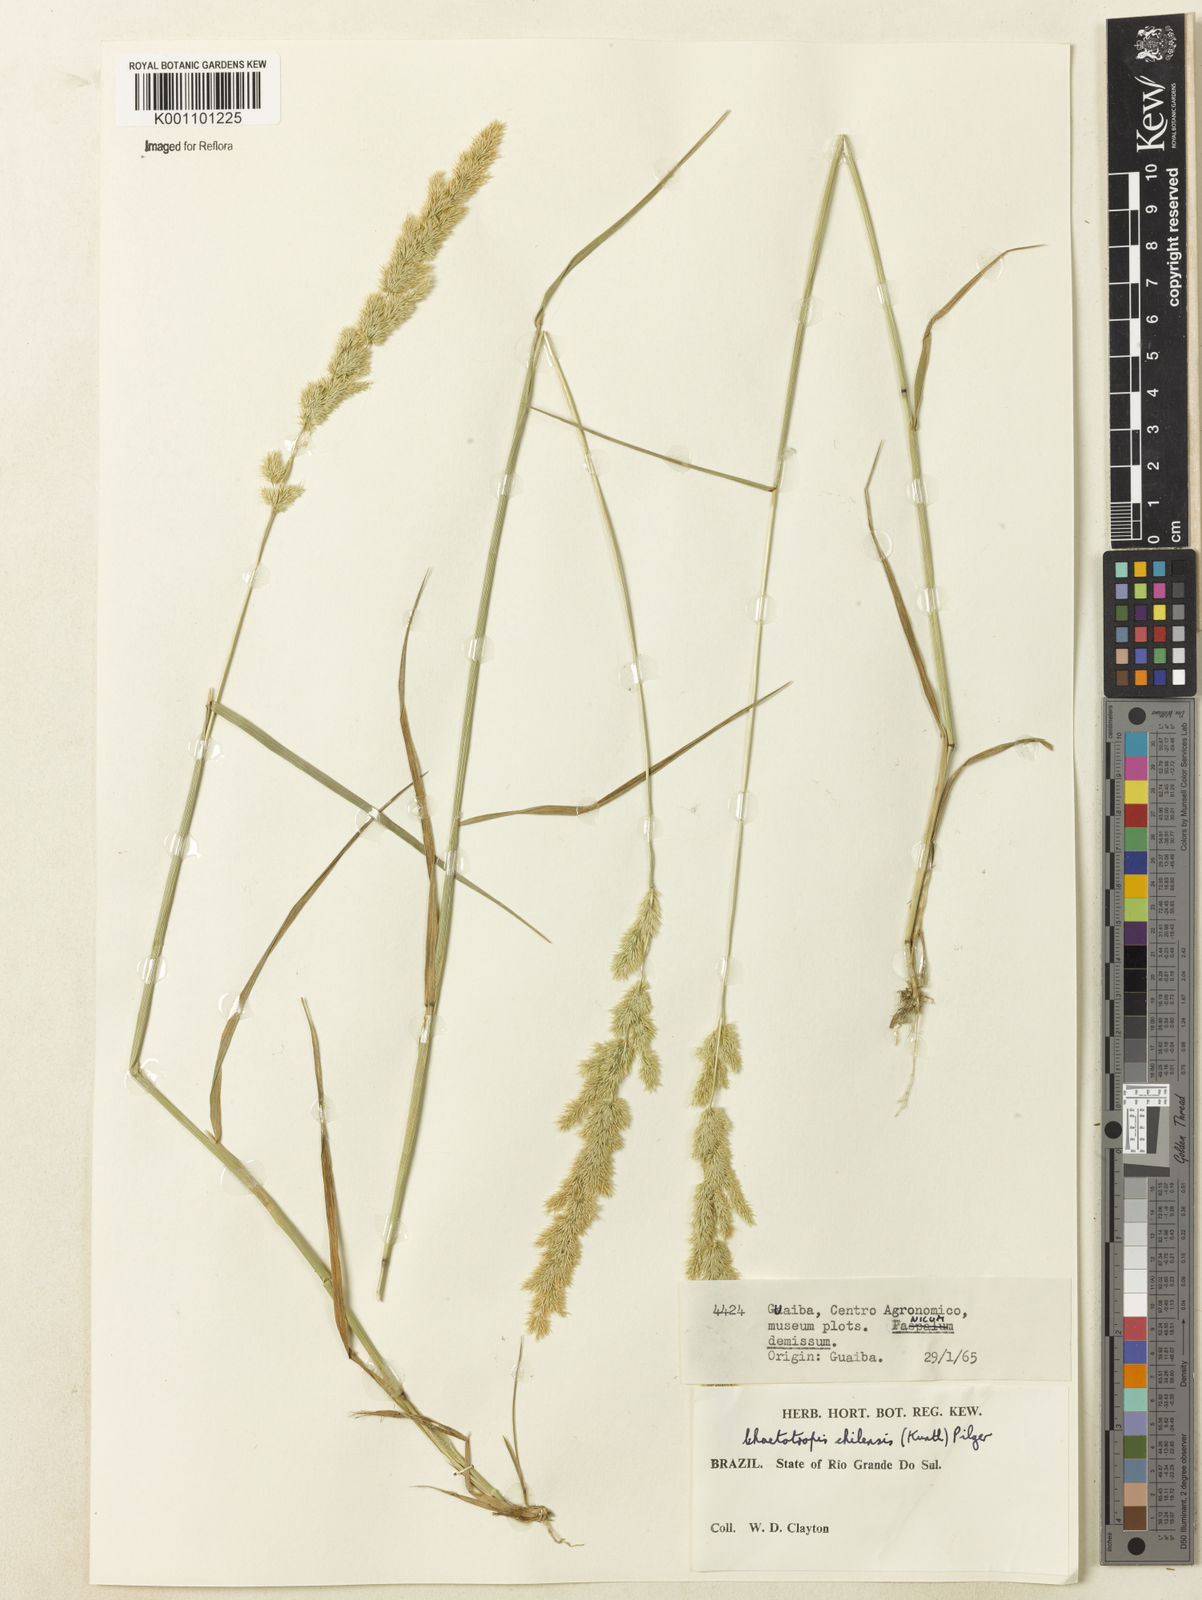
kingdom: Plantae
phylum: Tracheophyta
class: Liliopsida
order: Poales
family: Poaceae
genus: Polypogon
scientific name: Polypogon chilensis
